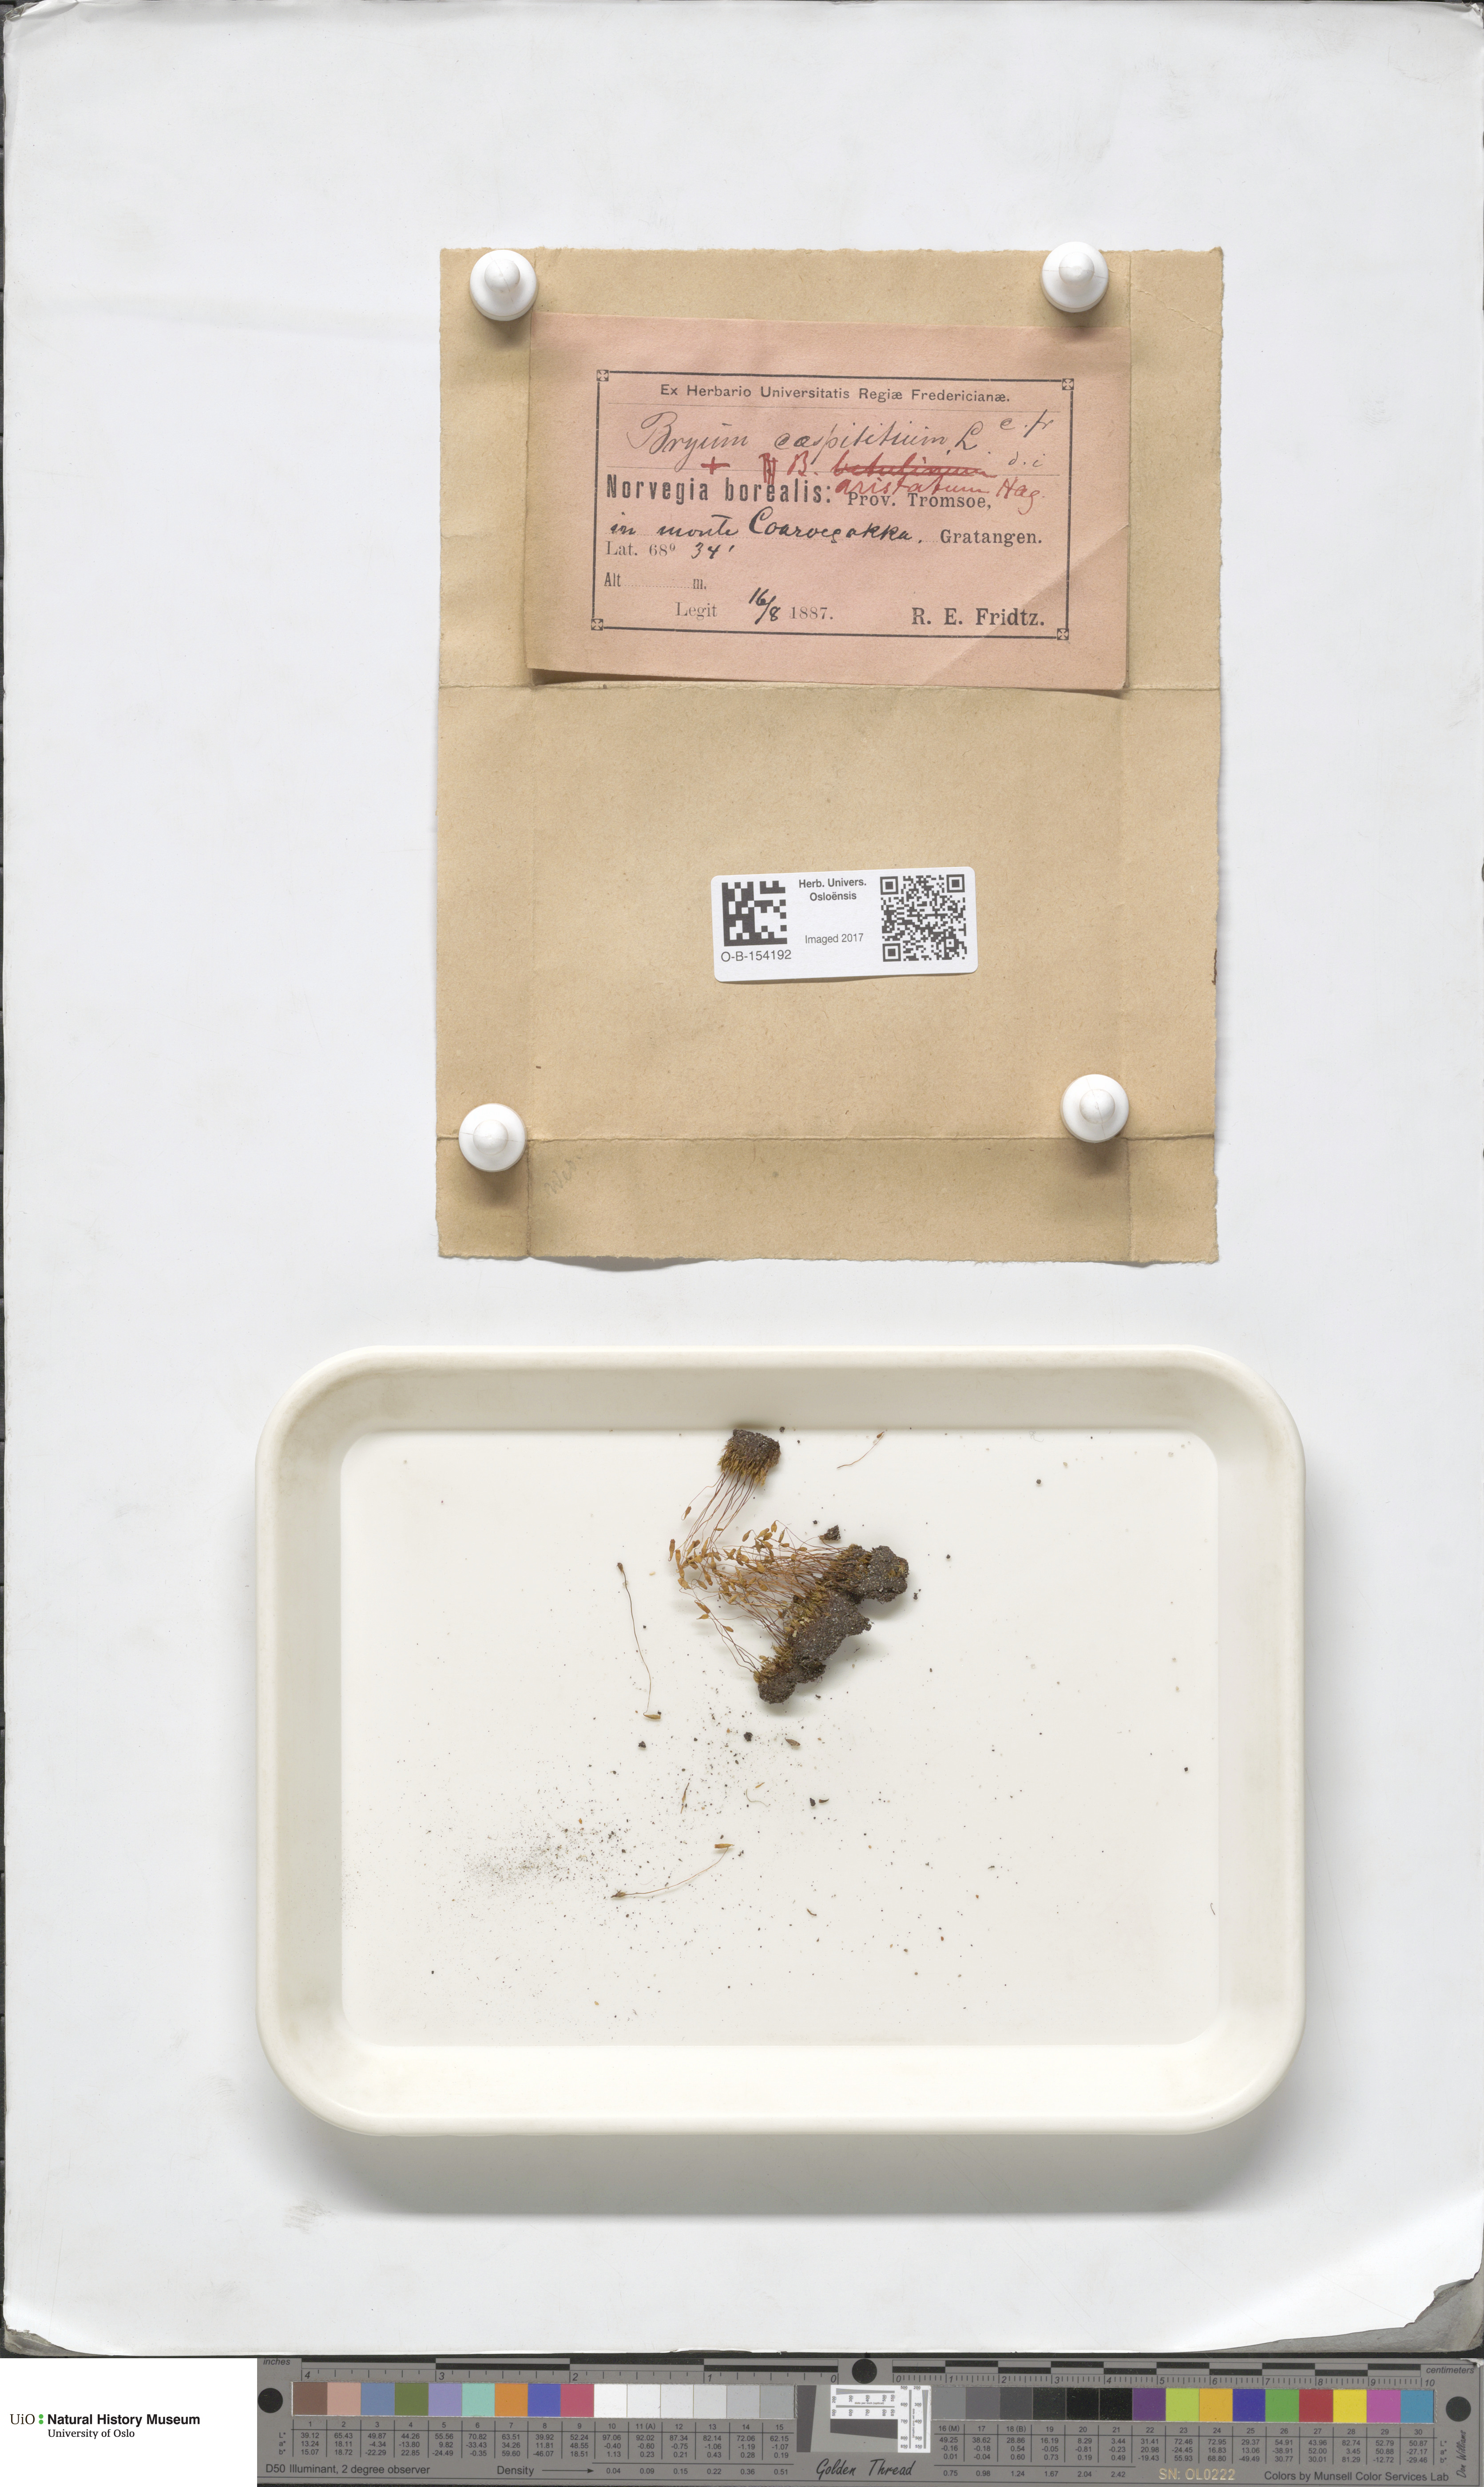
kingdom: Plantae
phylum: Bryophyta
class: Bryopsida
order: Bryales
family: Bryaceae
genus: Gemmabryum
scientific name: Gemmabryum caespiticium
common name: Handbell moss
